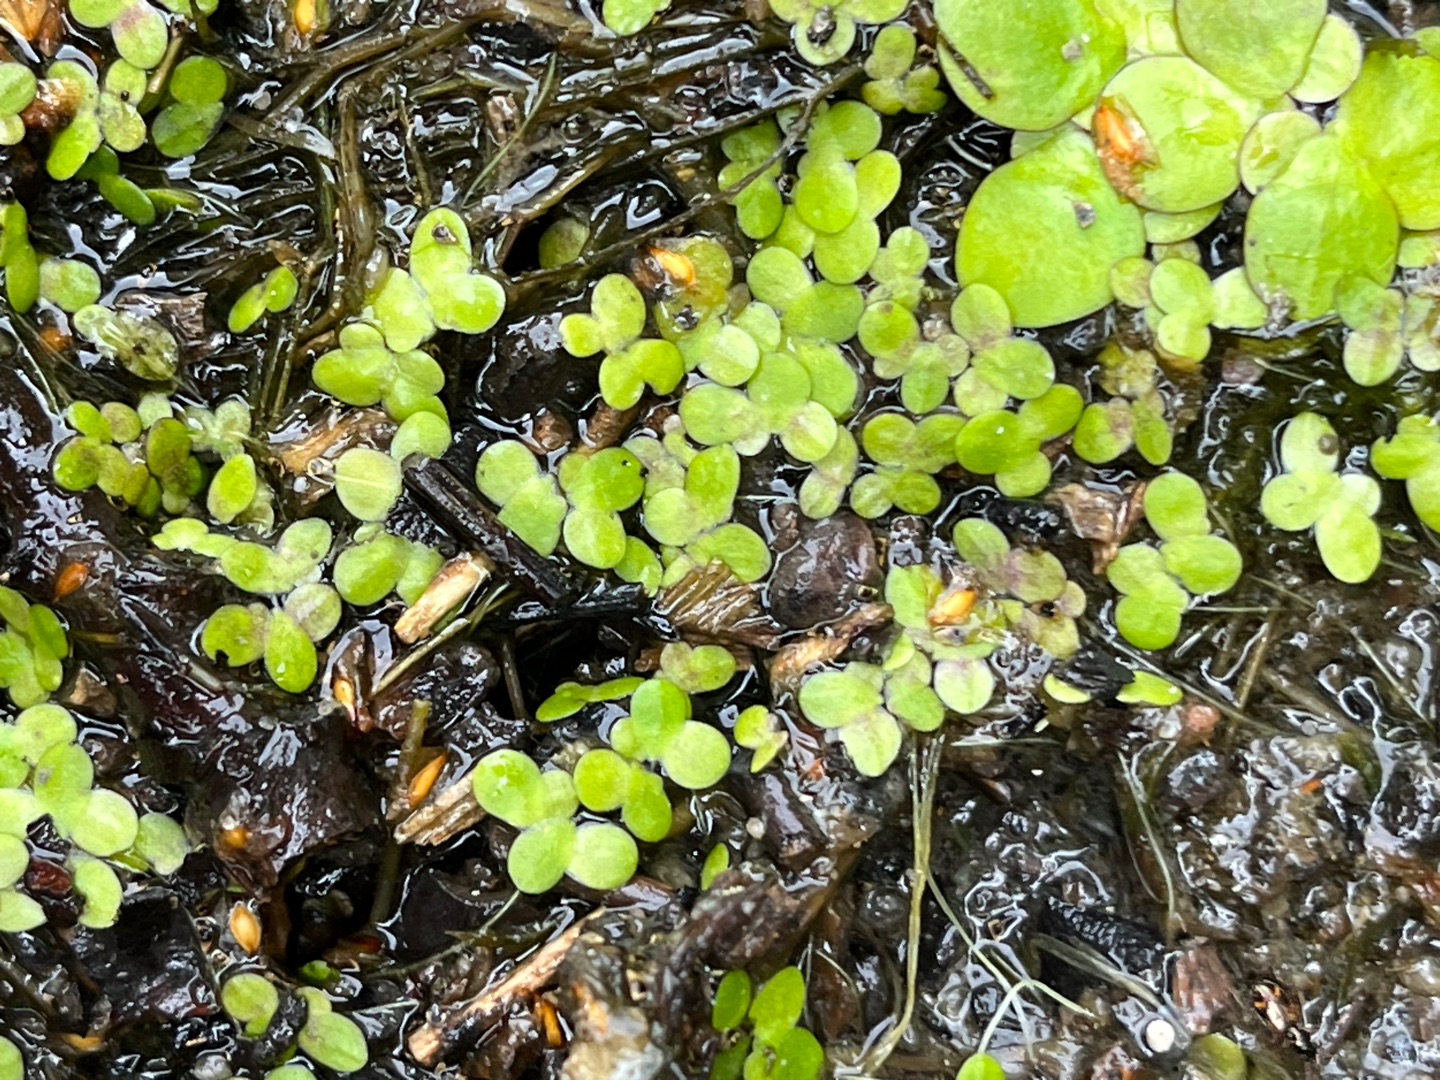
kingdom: Plantae
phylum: Tracheophyta
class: Liliopsida
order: Alismatales
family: Araceae
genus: Lemna
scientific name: Lemna minor
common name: Liden andemad
